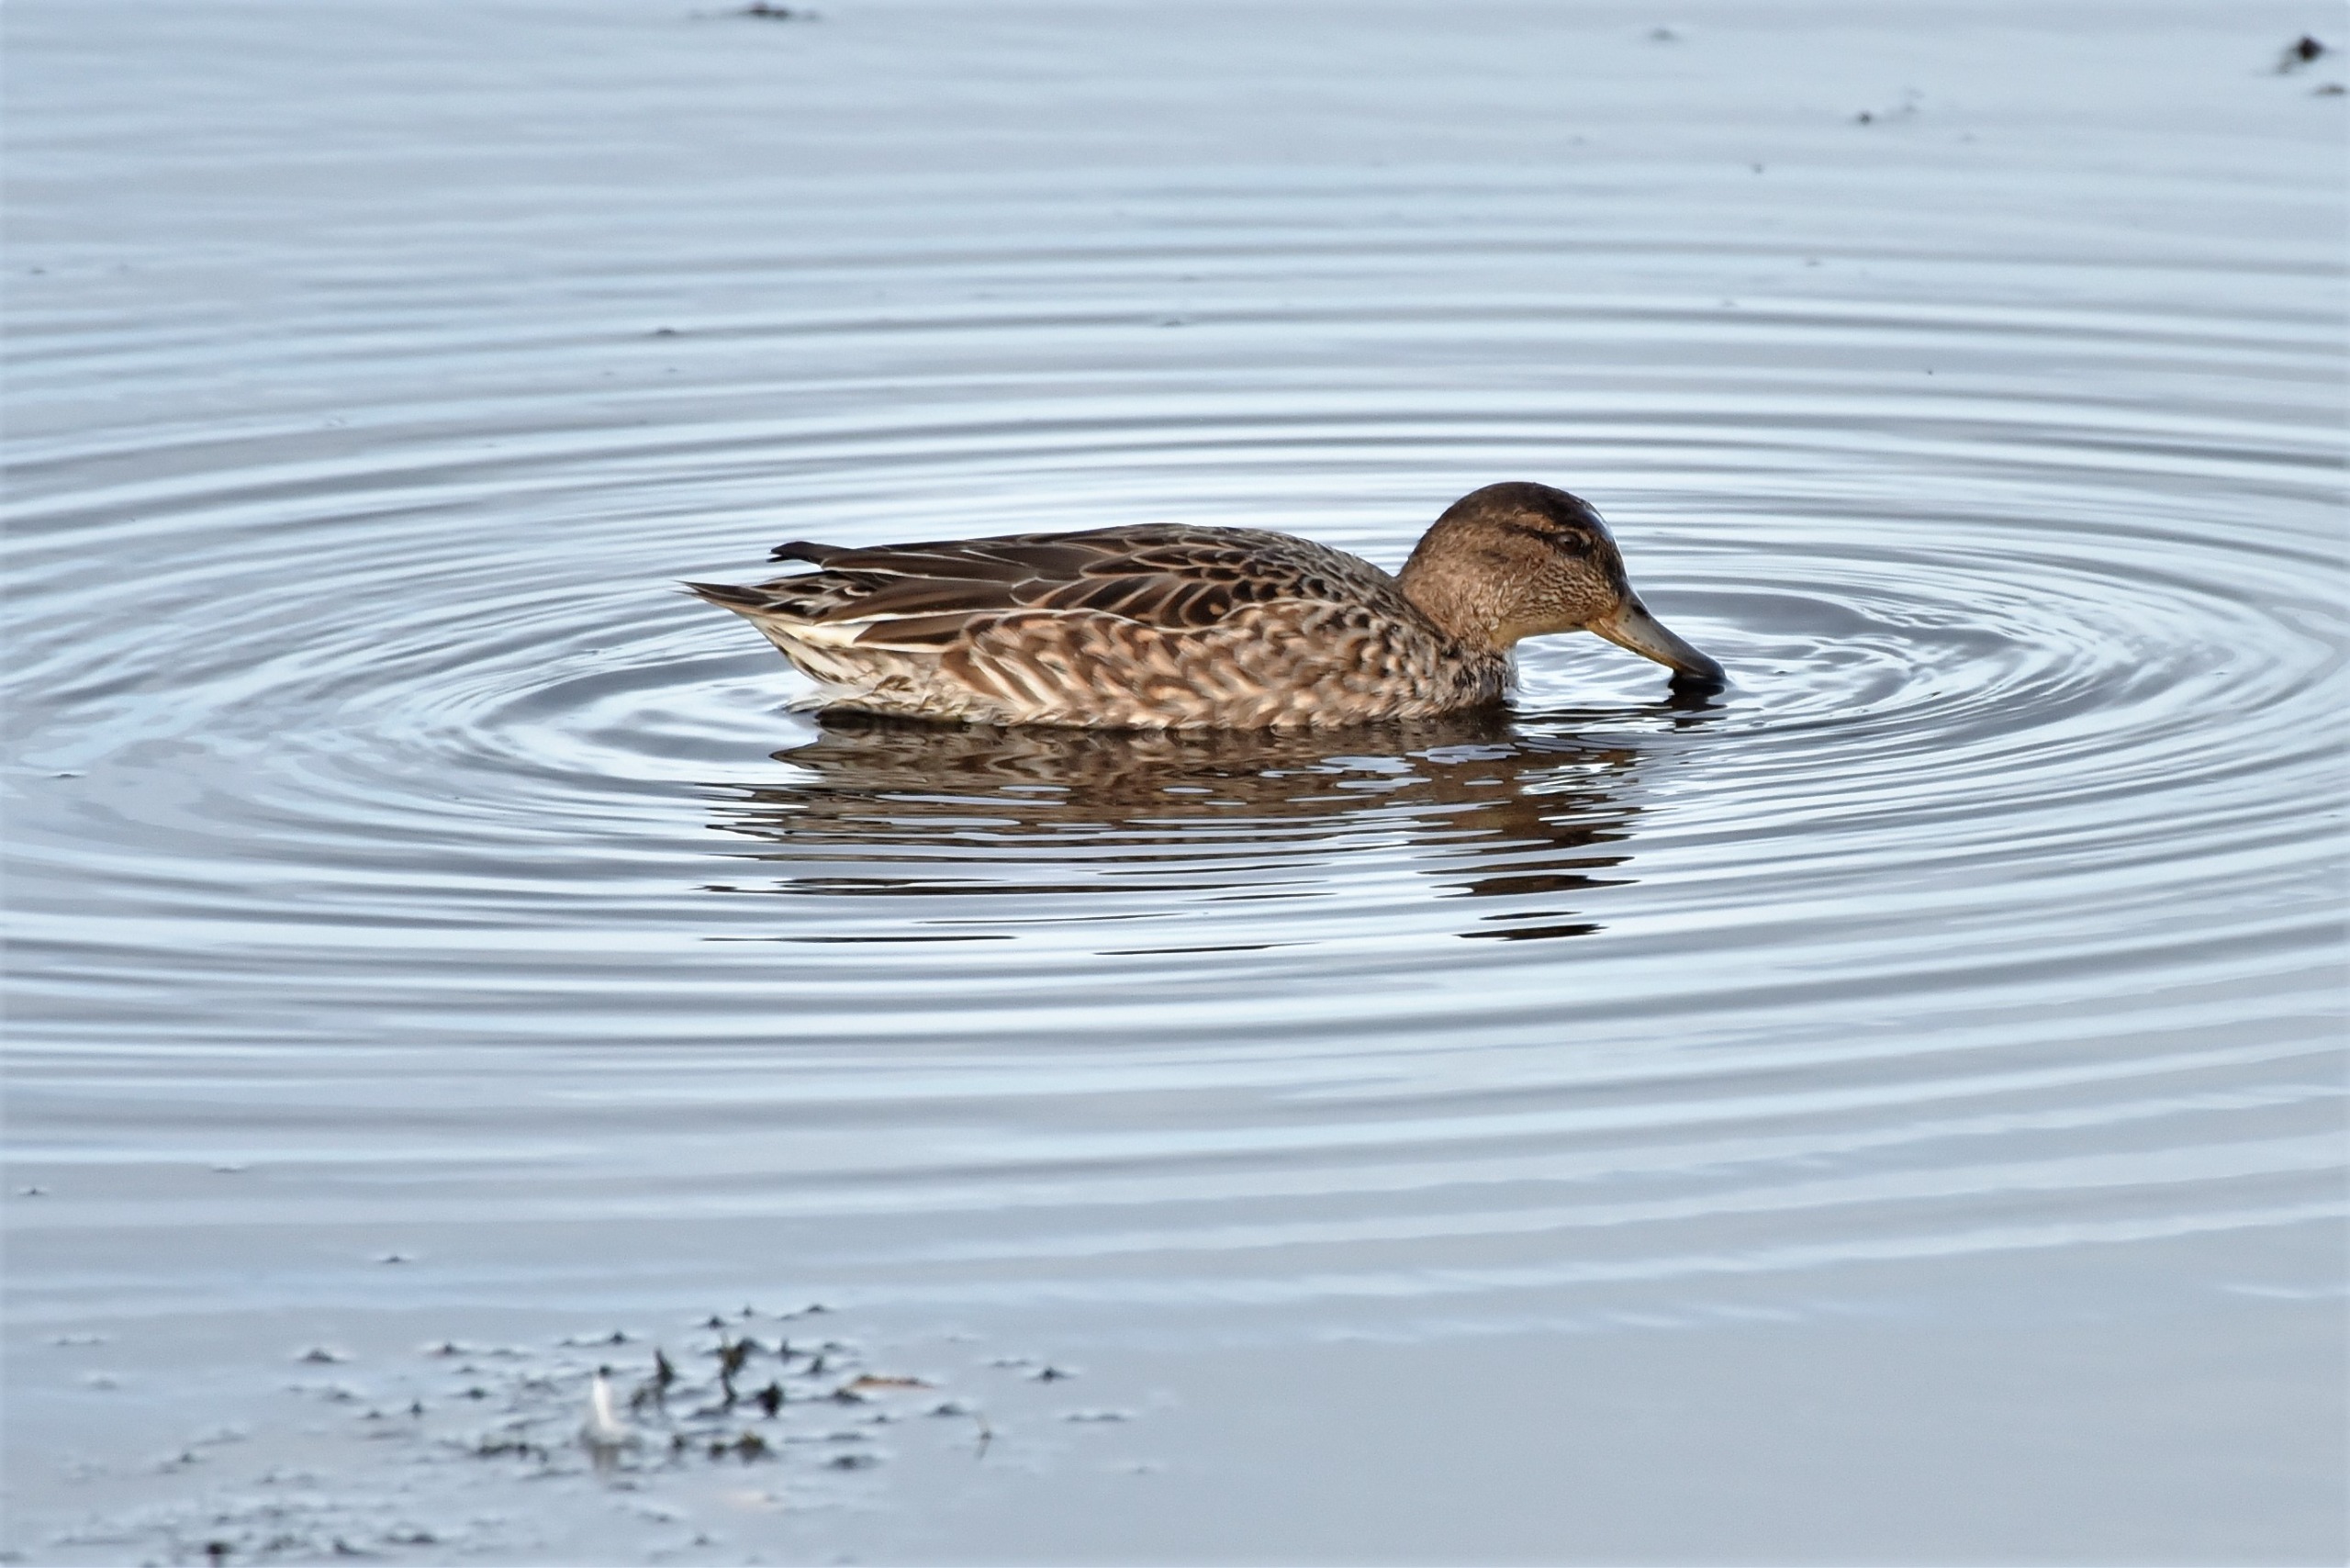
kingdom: Animalia
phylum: Chordata
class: Aves
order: Anseriformes
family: Anatidae
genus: Anas
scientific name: Anas crecca
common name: Krikand
